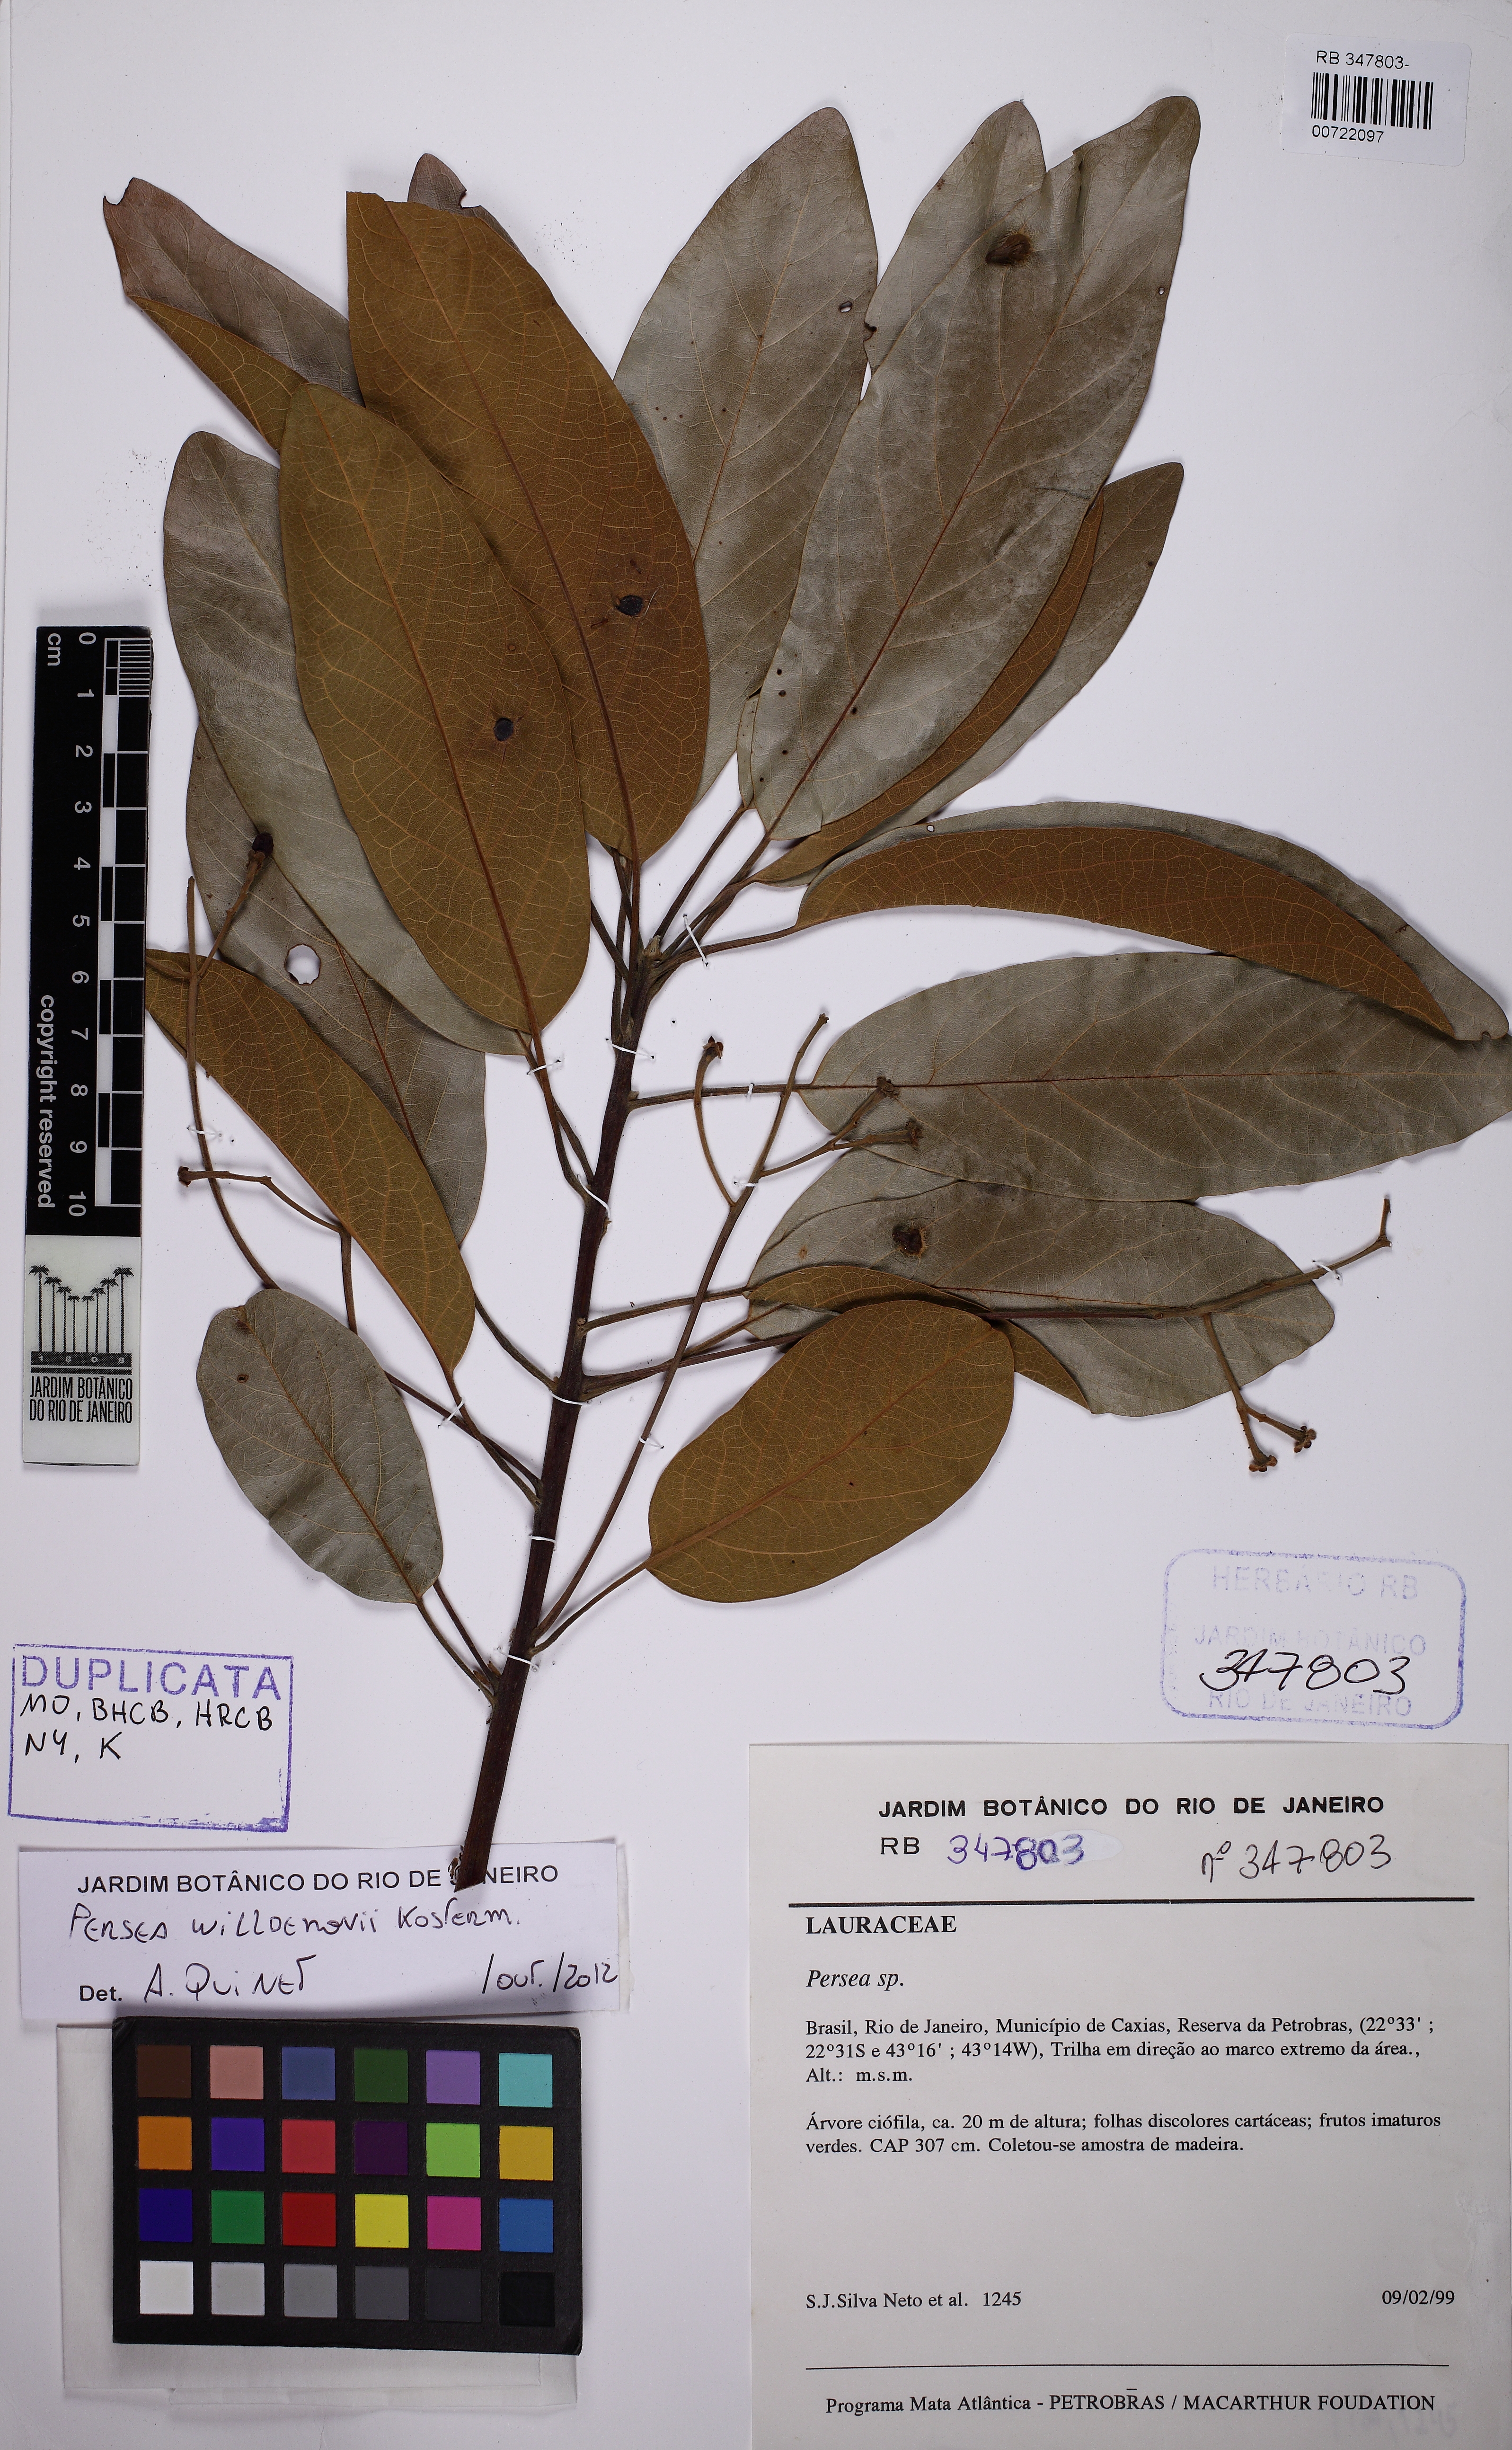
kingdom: Plantae
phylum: Tracheophyta
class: Magnoliopsida
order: Laurales
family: Lauraceae
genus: Persea
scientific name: Persea willdenovii
